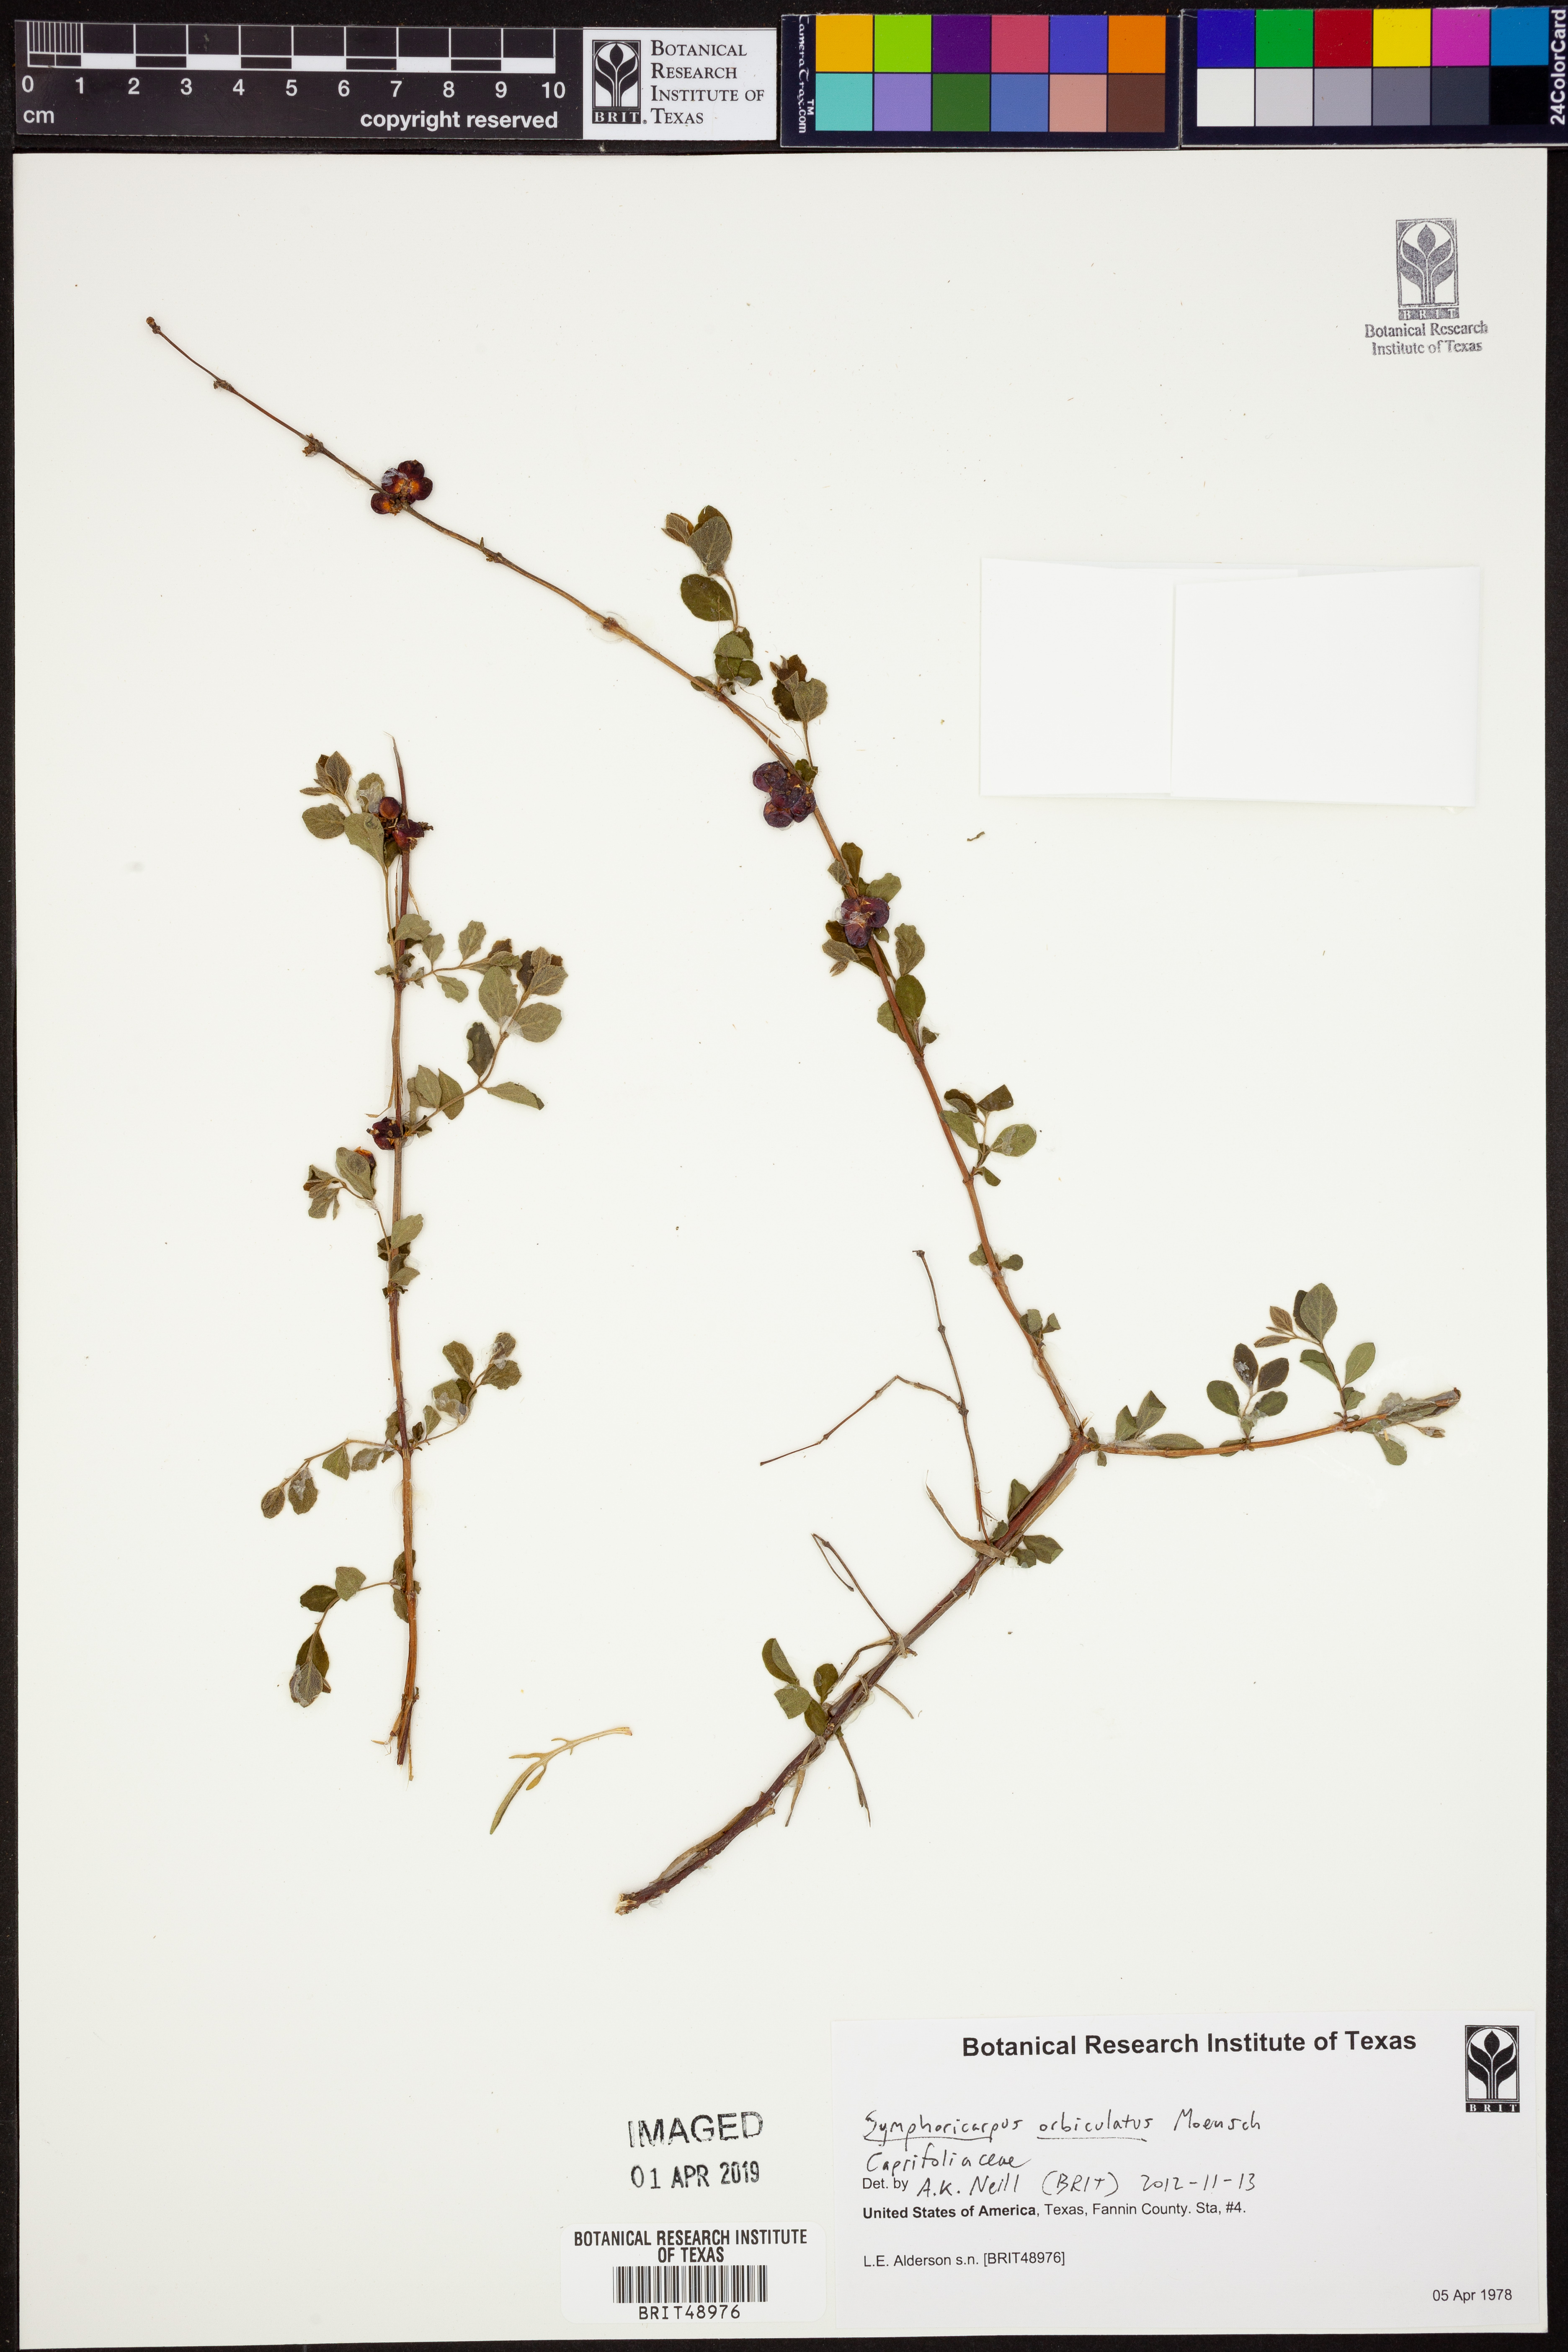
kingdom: Plantae
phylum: Tracheophyta
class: Magnoliopsida
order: Dipsacales
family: Caprifoliaceae
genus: Symphoricarpos
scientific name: Symphoricarpos orbiculatus
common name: Coralberry
